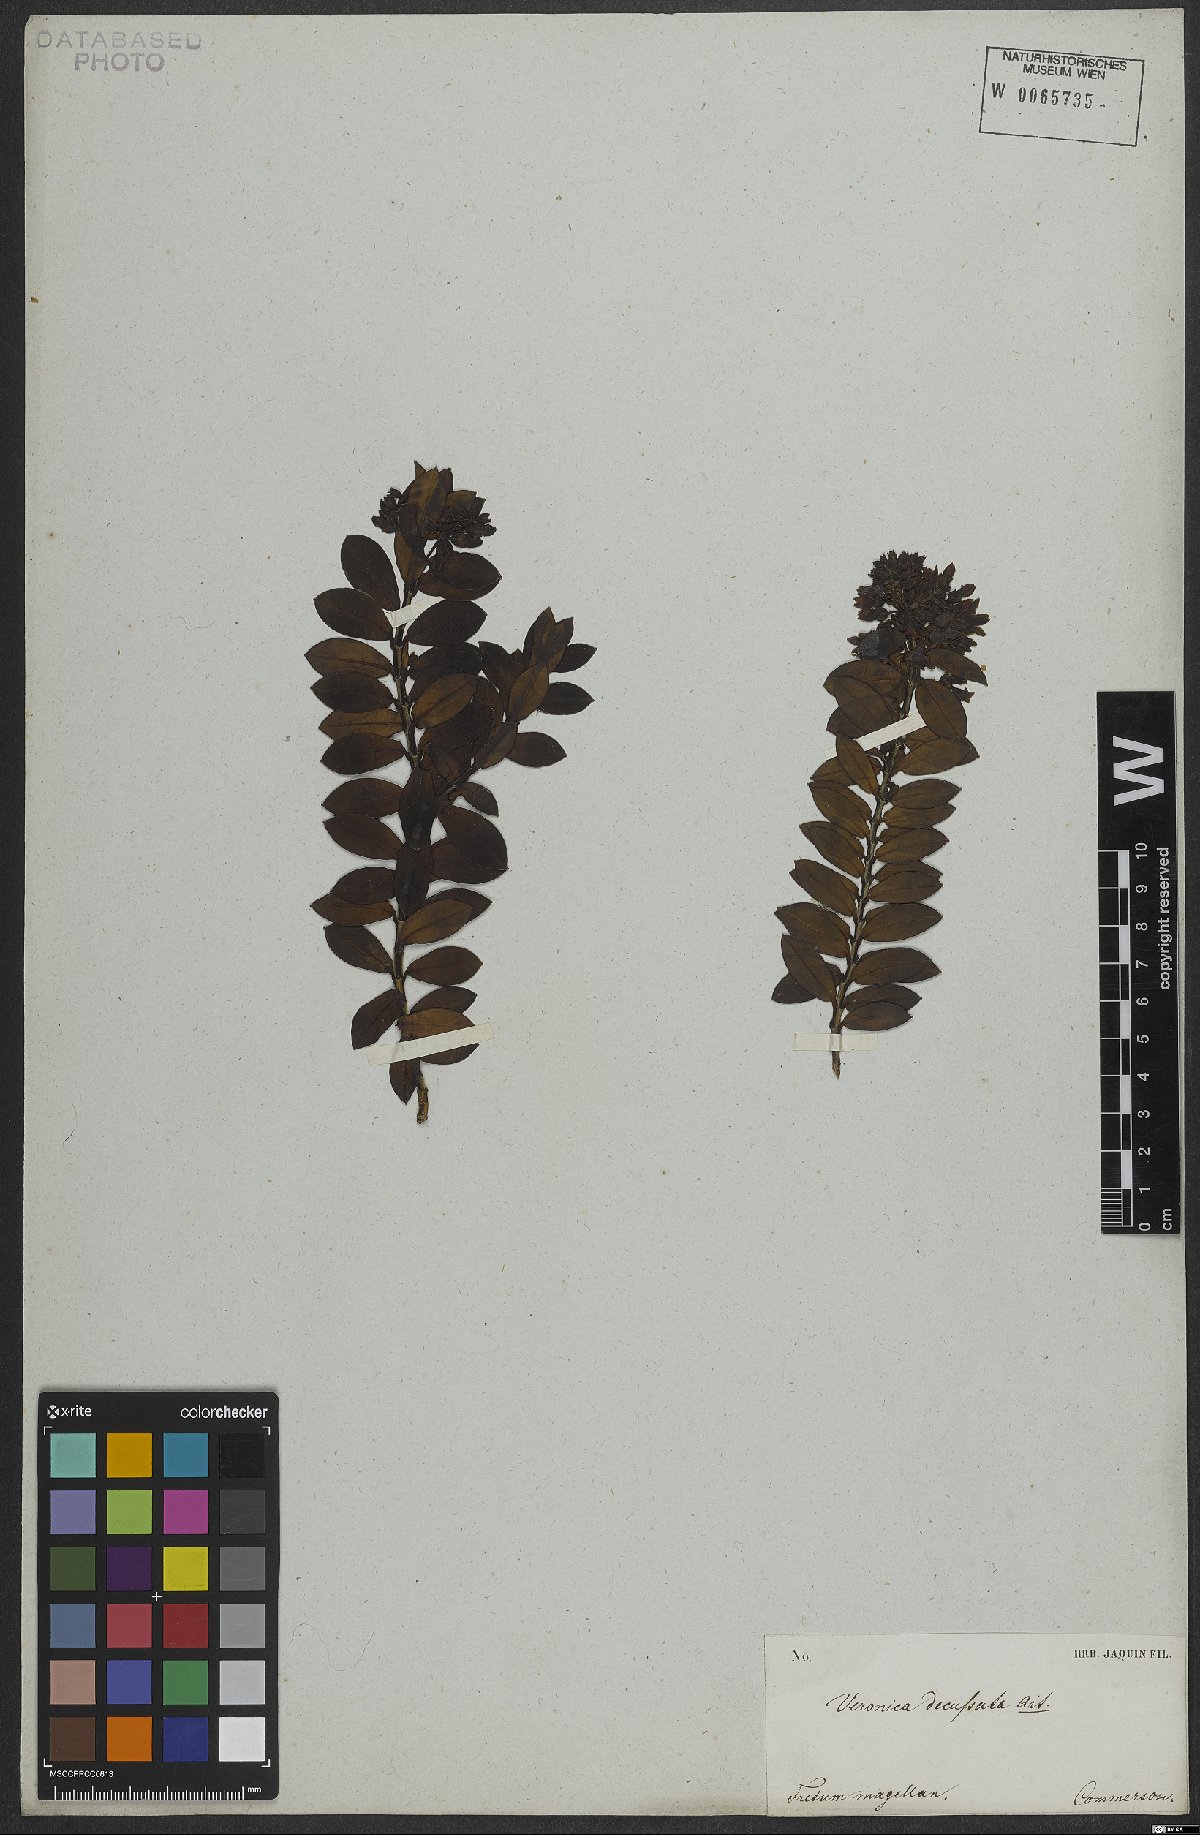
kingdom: Plantae
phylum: Tracheophyta
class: Magnoliopsida
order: Lamiales
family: Plantaginaceae
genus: Veronica
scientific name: Veronica elliptica
